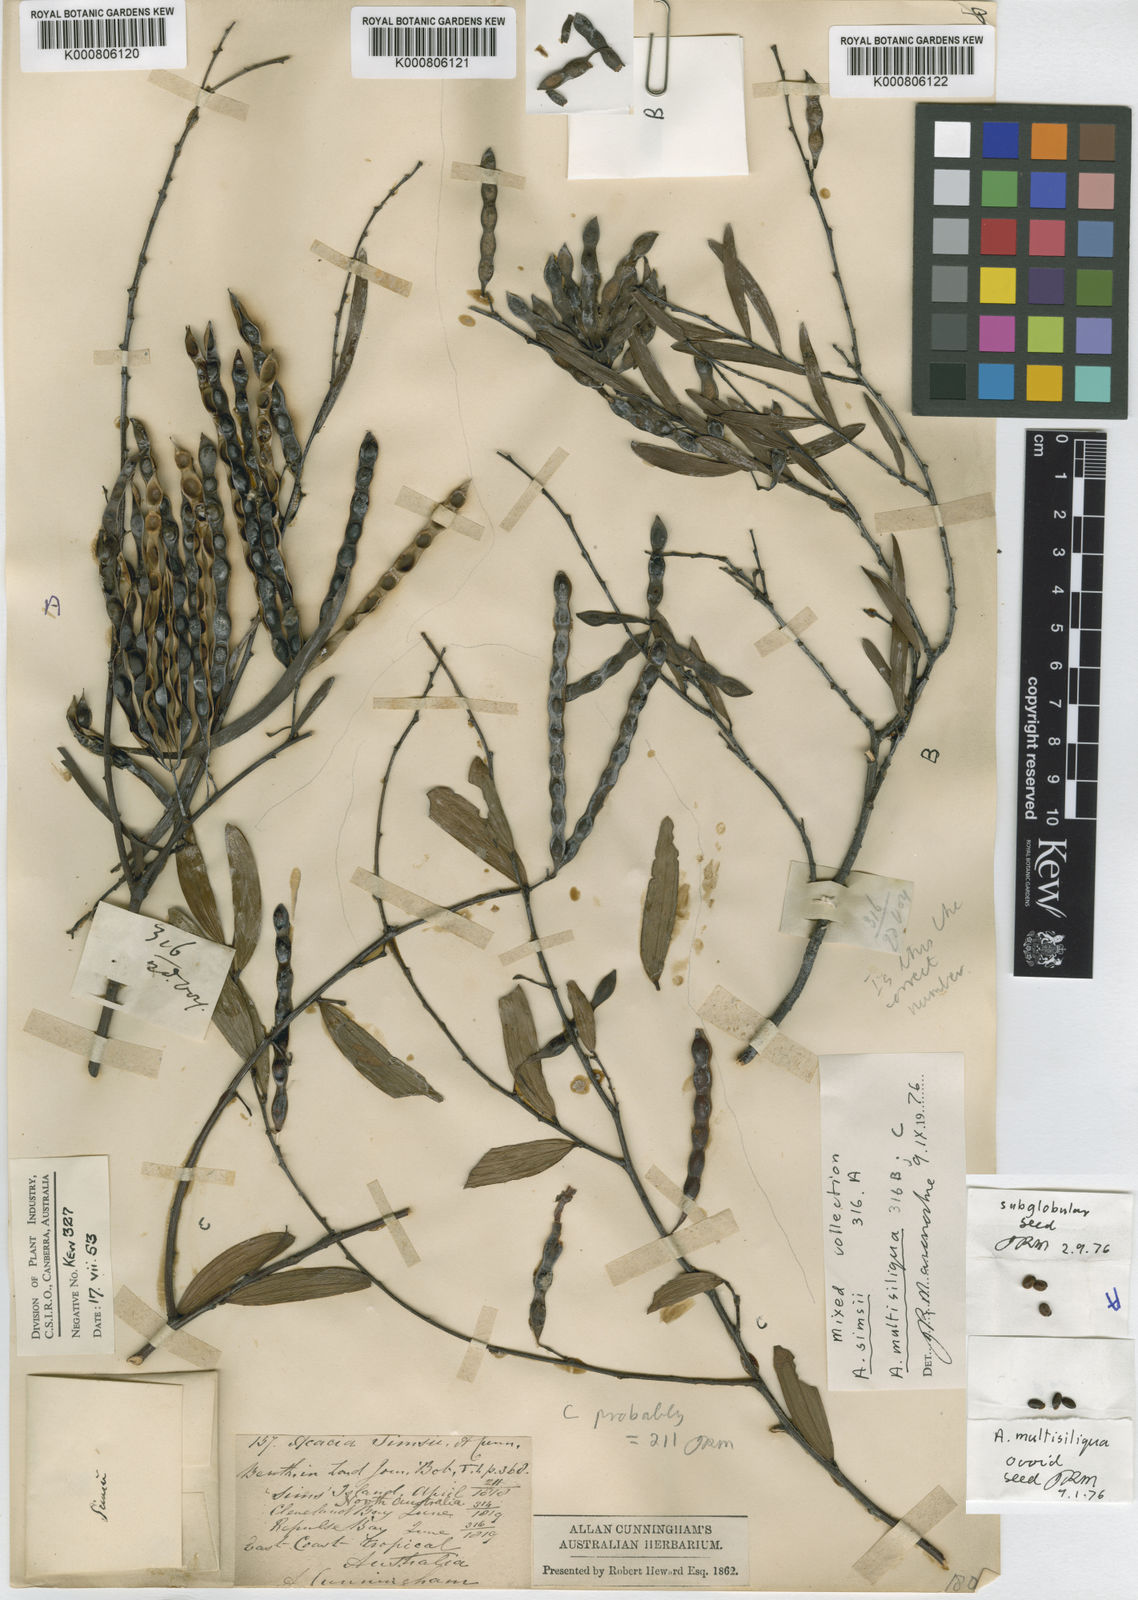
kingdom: Plantae
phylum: Tracheophyta
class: Magnoliopsida
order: Fabales
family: Fabaceae
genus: Acacia
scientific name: Acacia
